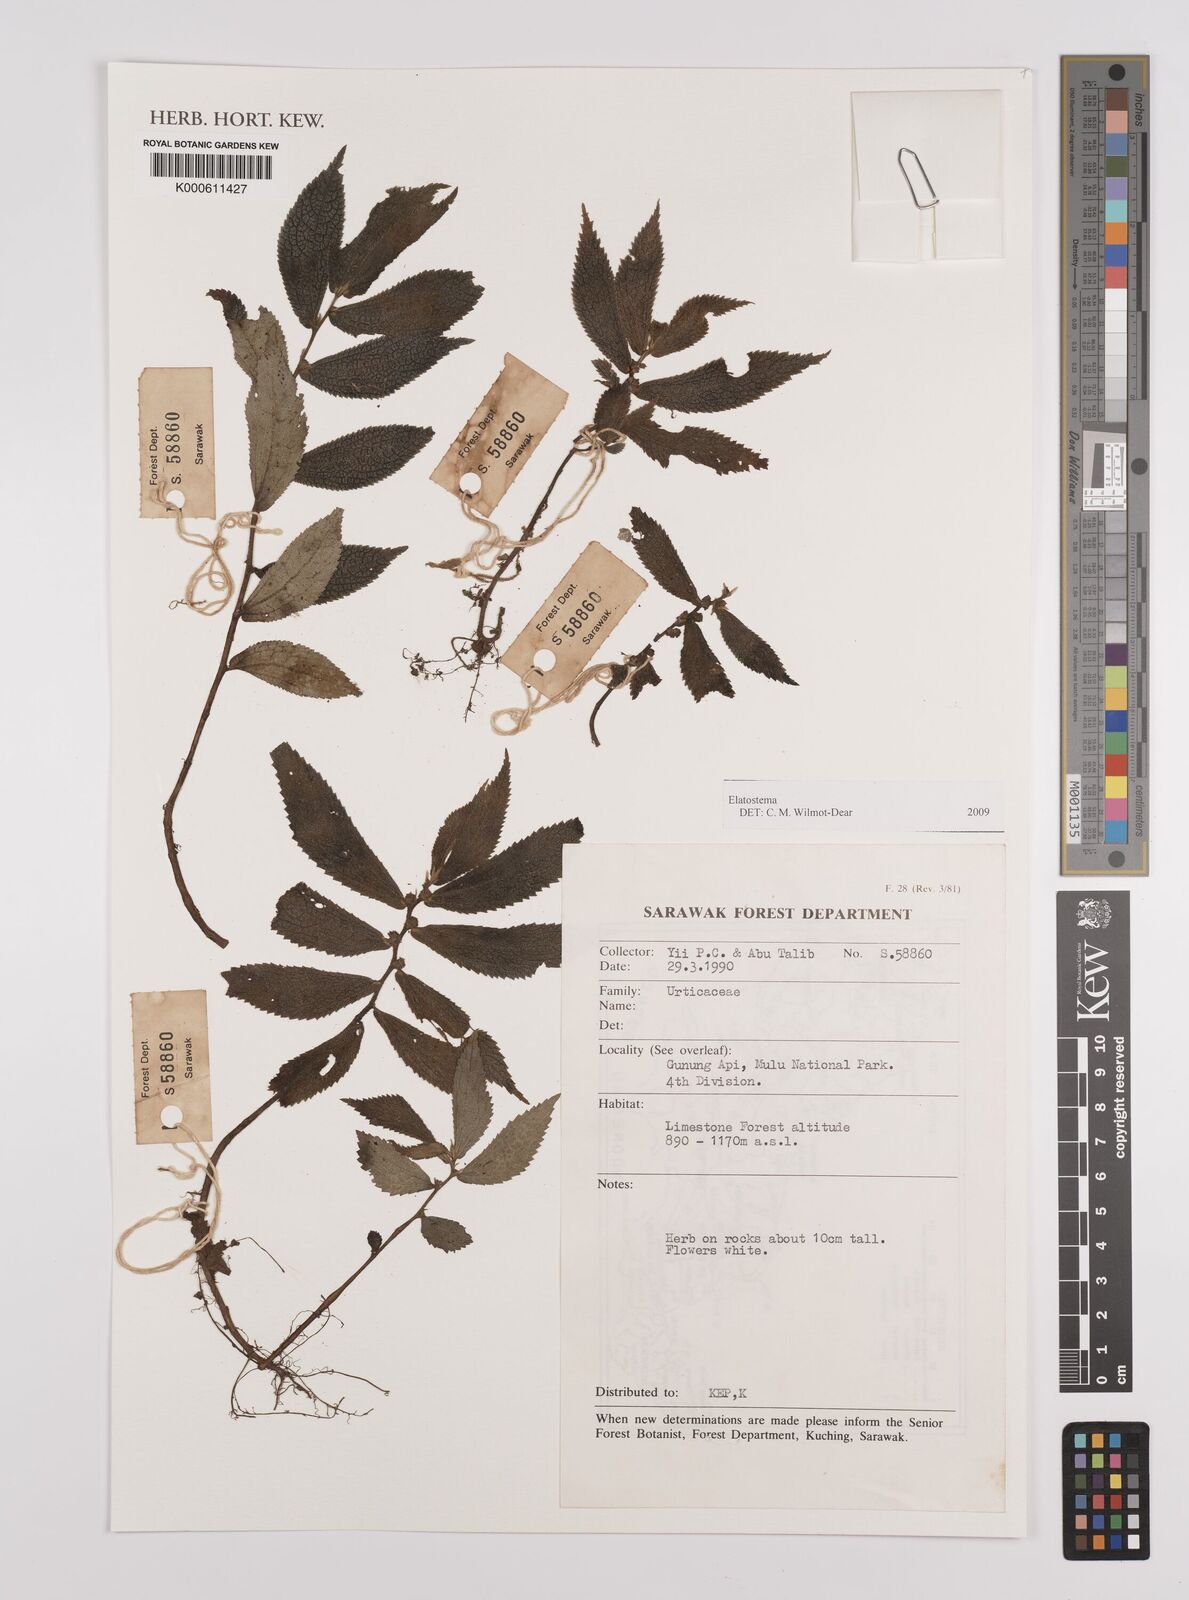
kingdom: Plantae
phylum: Tracheophyta
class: Magnoliopsida
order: Rosales
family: Urticaceae
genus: Elatostema
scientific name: Elatostema
